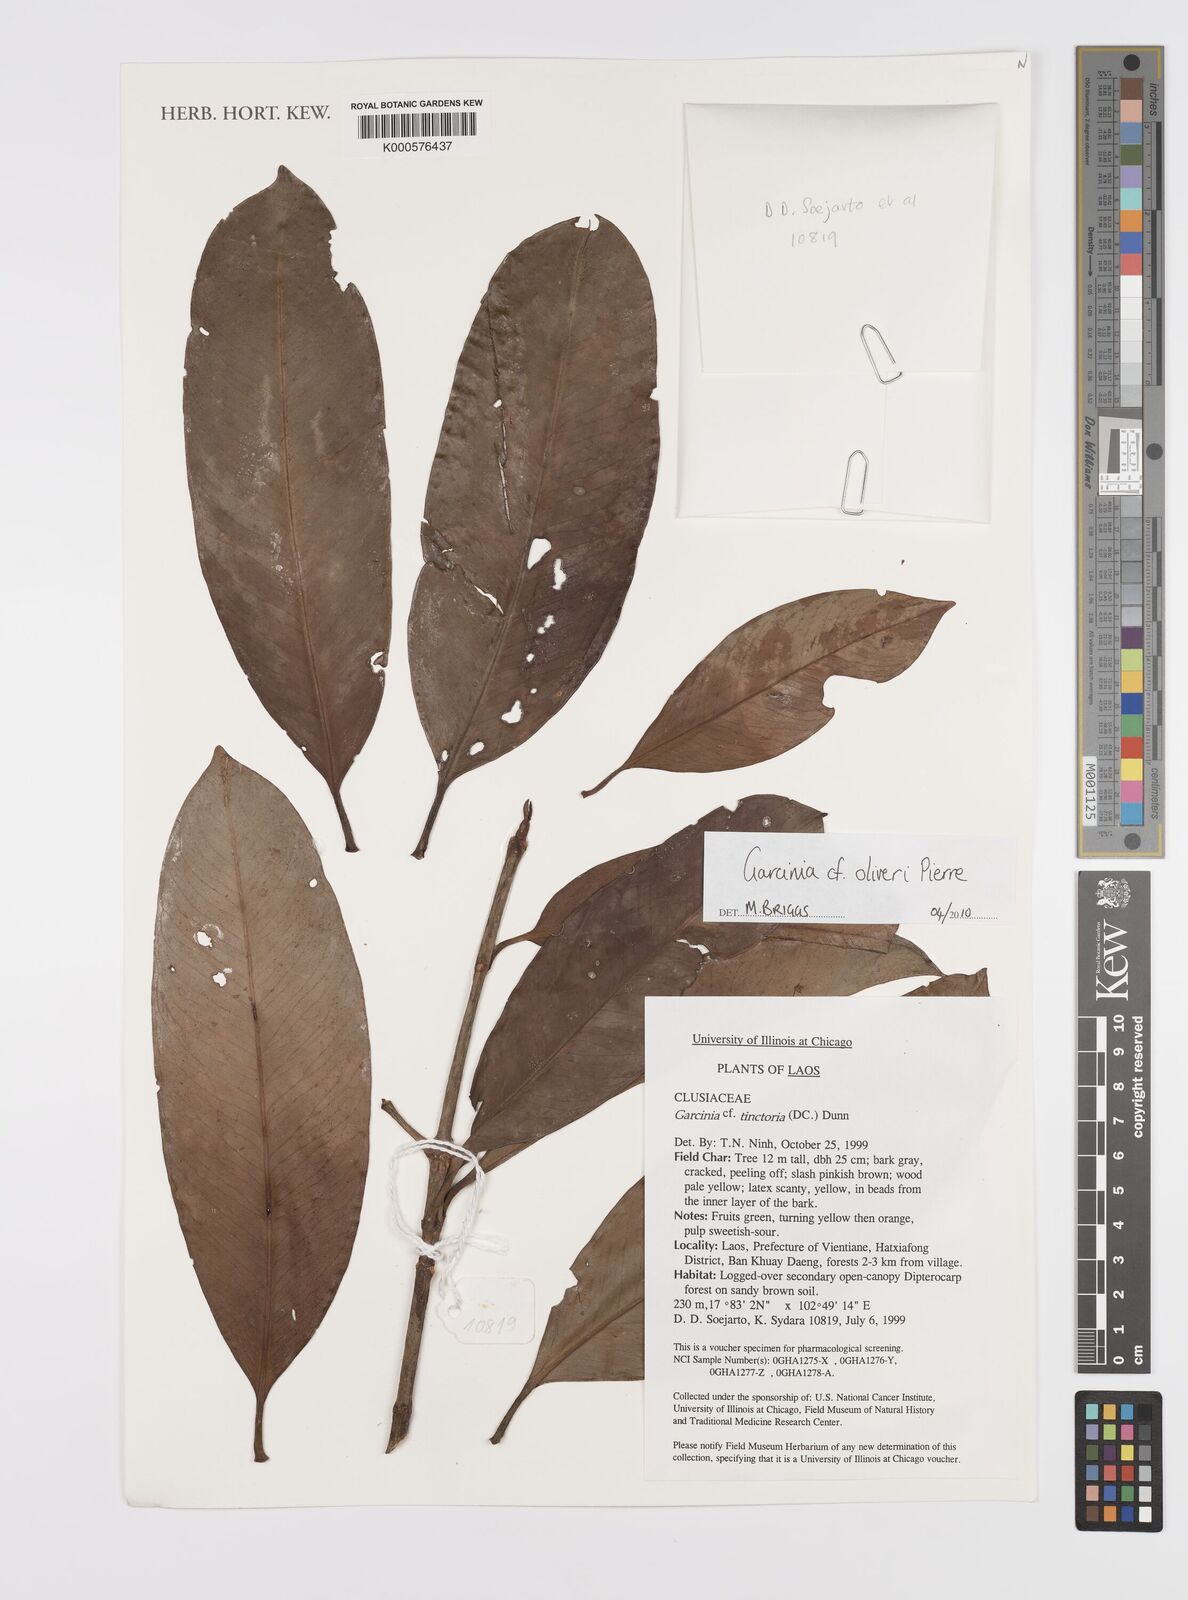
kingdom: Plantae
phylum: Tracheophyta
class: Magnoliopsida
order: Malpighiales
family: Clusiaceae
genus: Garcinia
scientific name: Garcinia oliveri
